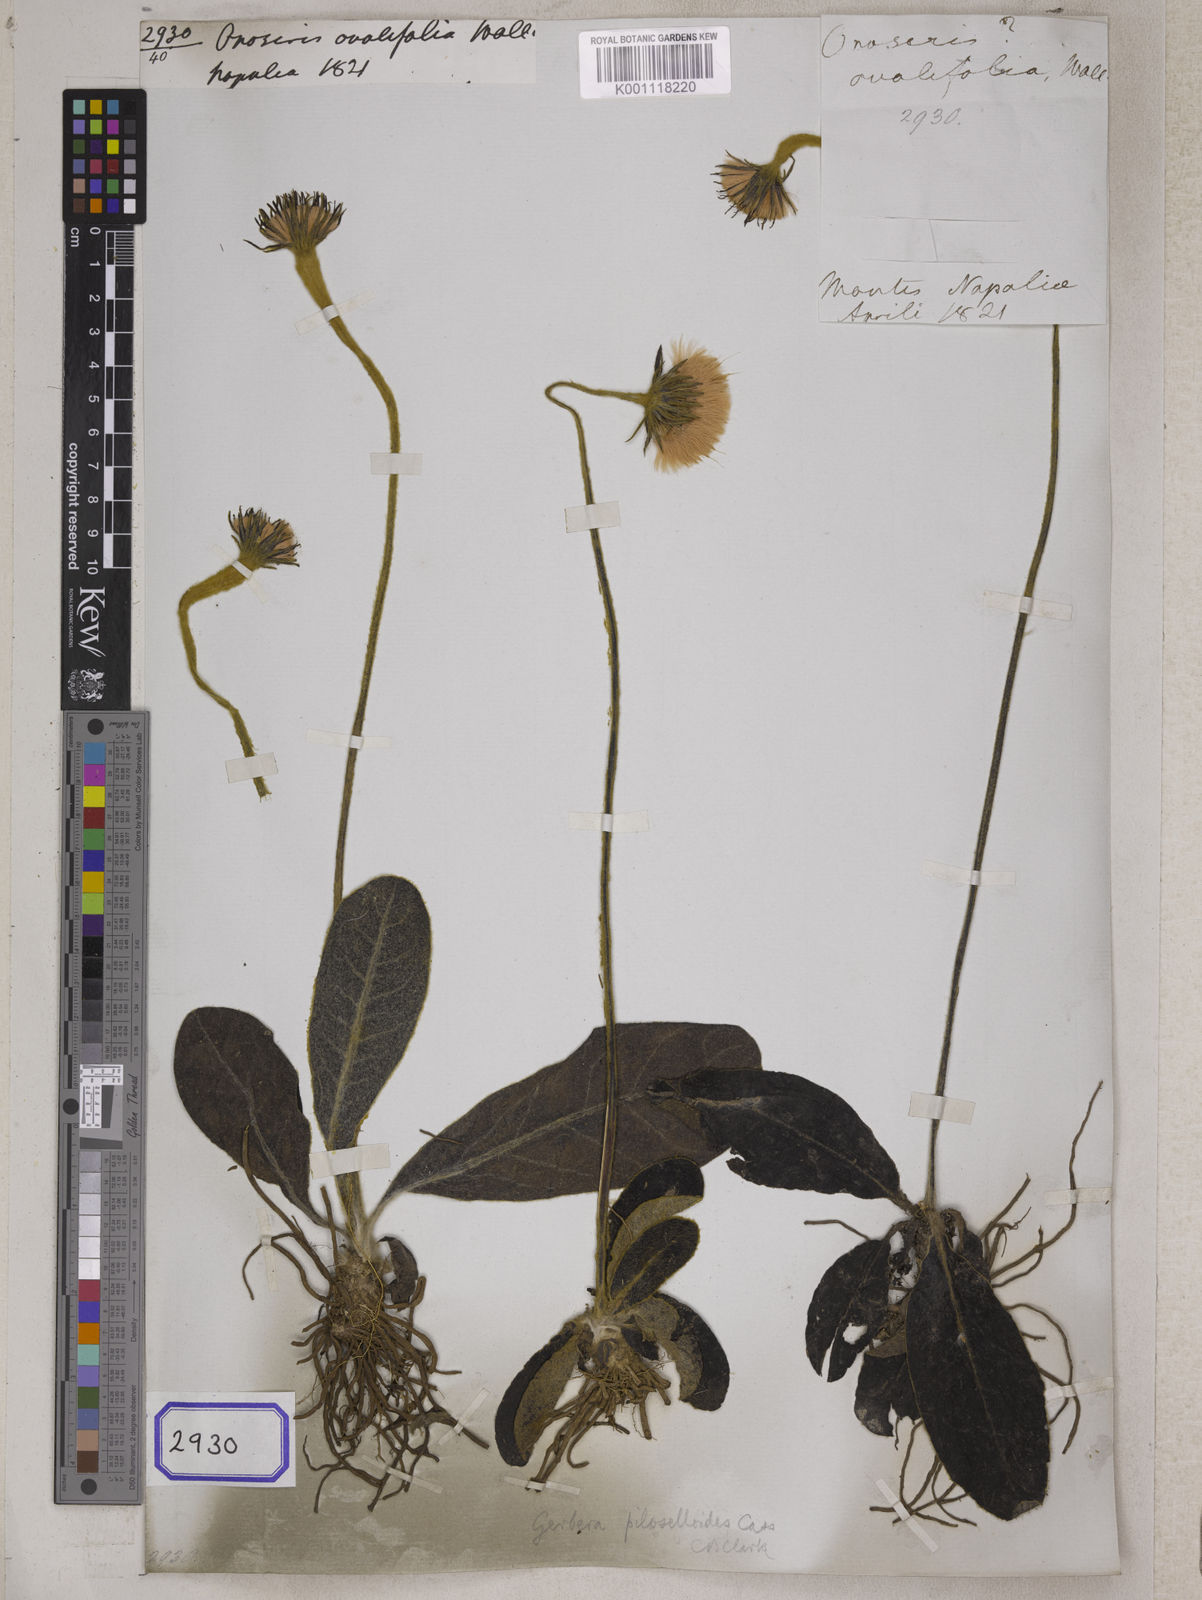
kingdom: Plantae
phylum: Tracheophyta
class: Magnoliopsida
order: Asterales
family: Asteraceae
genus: Onoseris
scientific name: Onoseris ovalifolia
